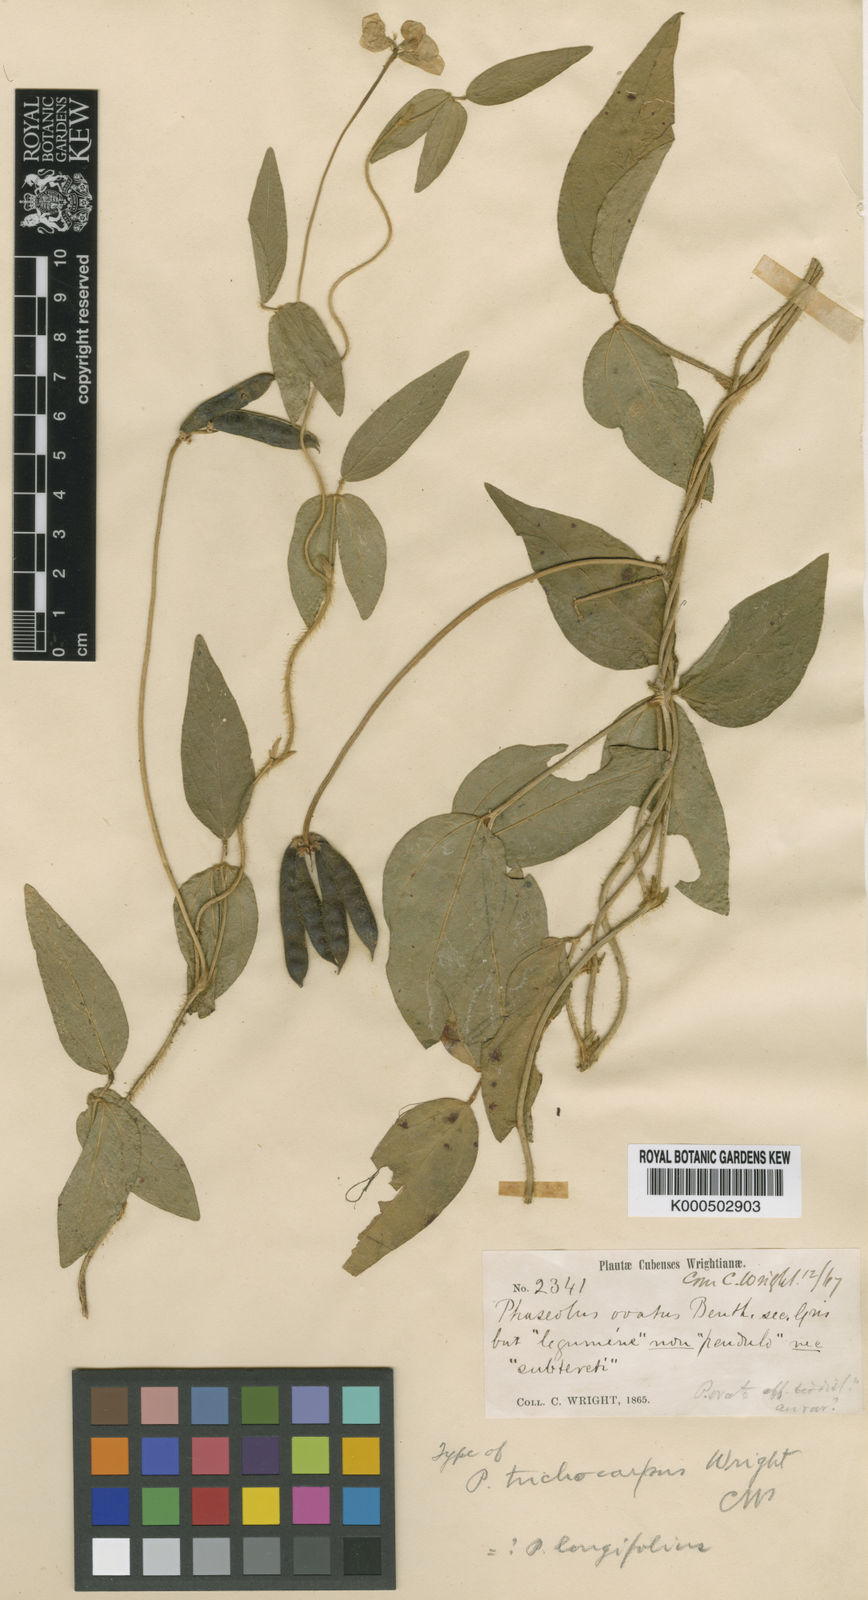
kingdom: Plantae
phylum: Tracheophyta
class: Magnoliopsida
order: Fabales
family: Fabaceae
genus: Vigna
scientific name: Vigna longifolia
